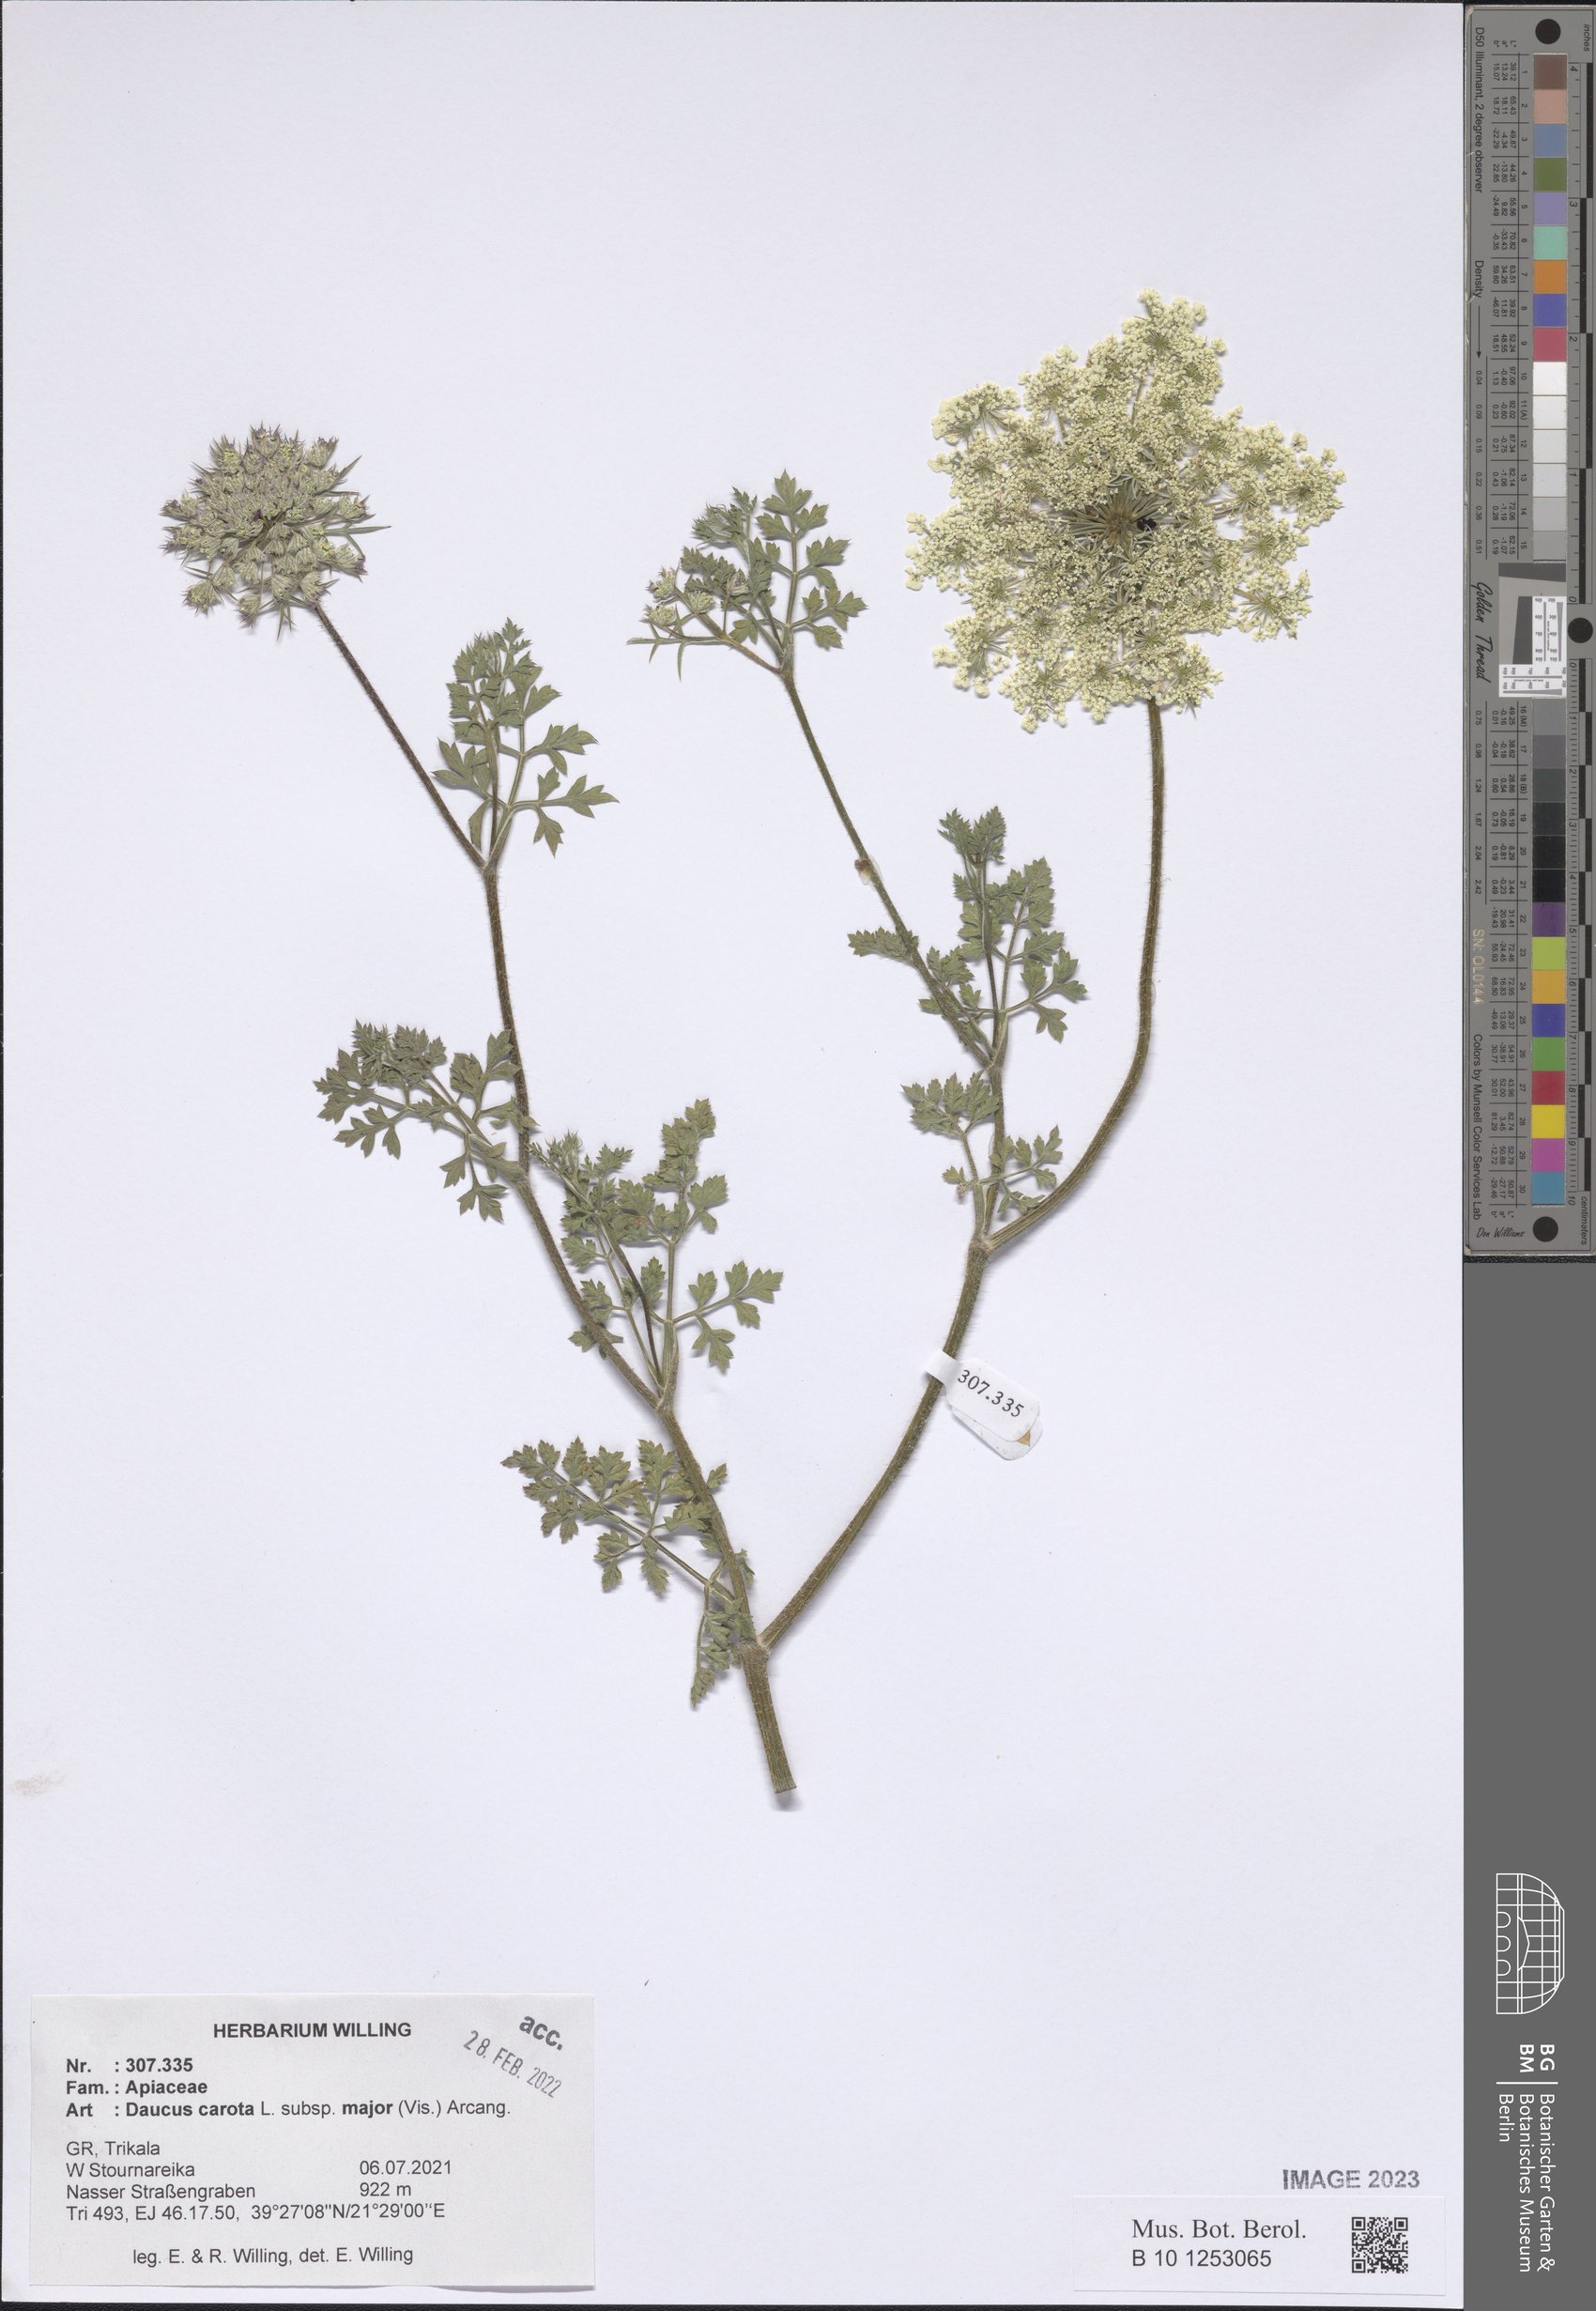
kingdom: Plantae
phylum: Tracheophyta
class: Magnoliopsida
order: Apiales
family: Apiaceae
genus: Daucus
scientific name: Daucus carota
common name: Wild carrot
